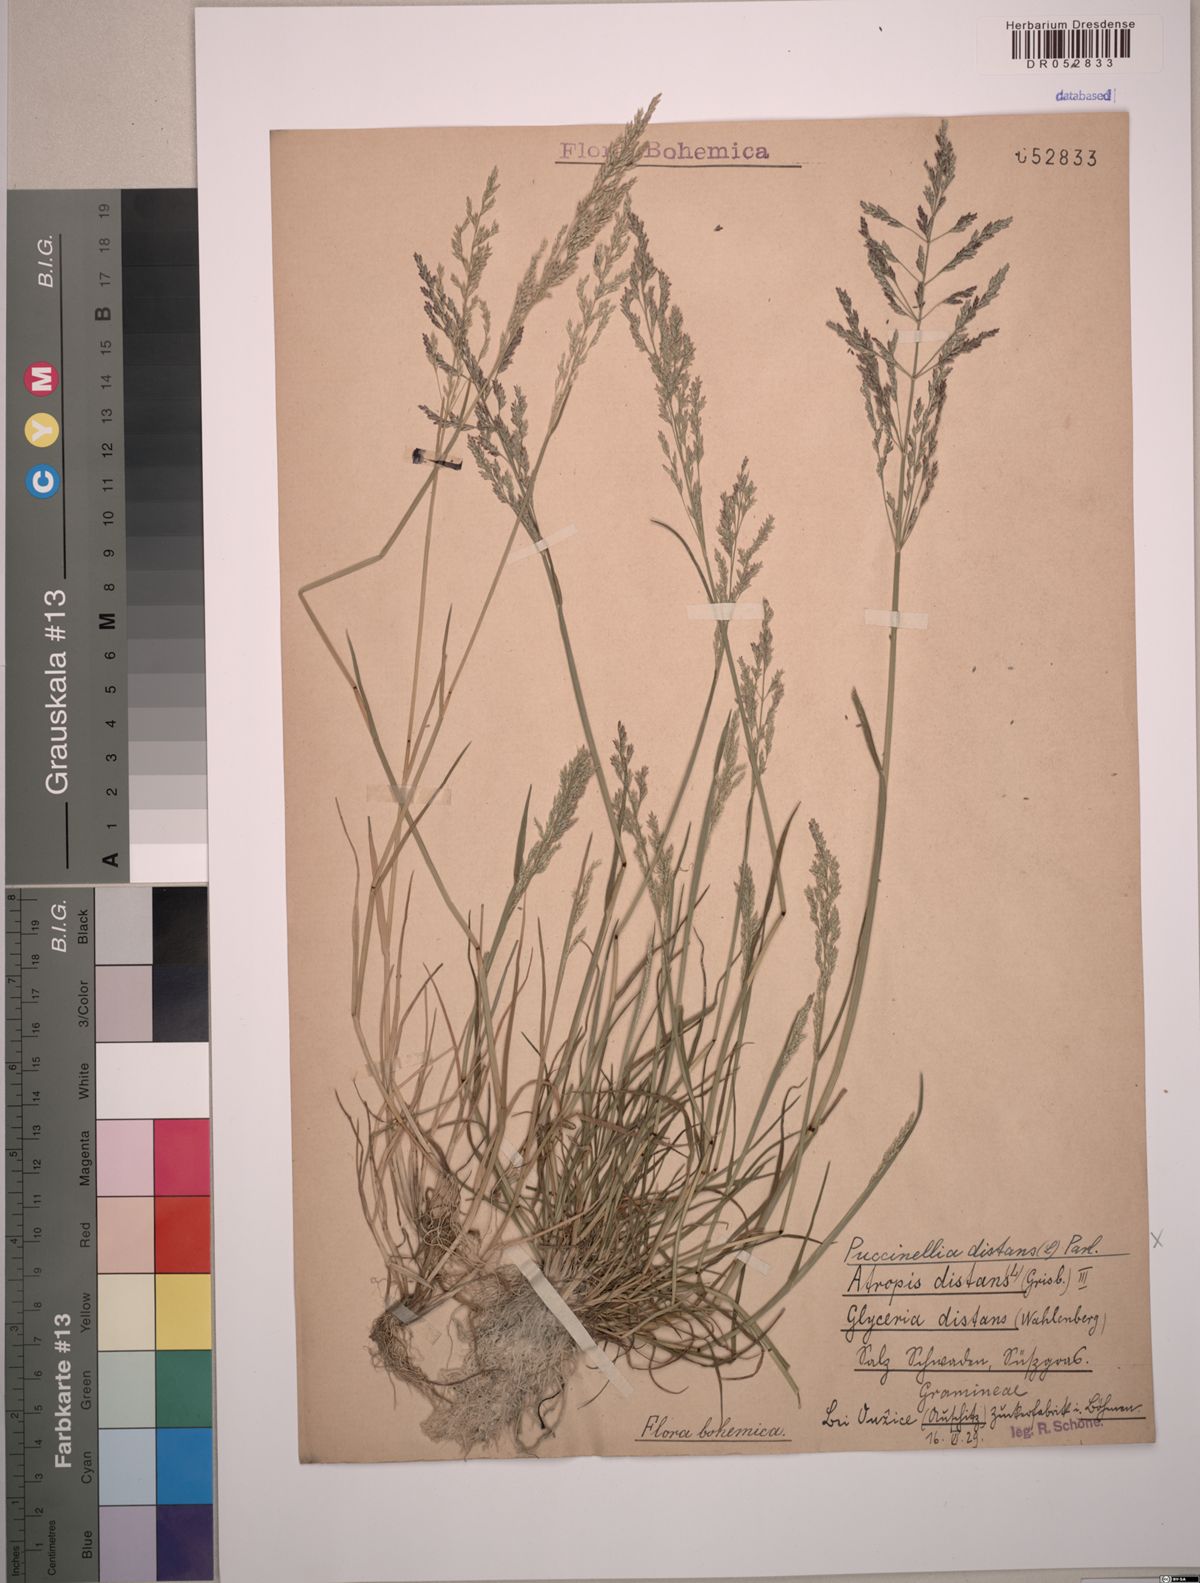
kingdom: Plantae
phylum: Tracheophyta
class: Liliopsida
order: Poales
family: Poaceae
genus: Puccinellia
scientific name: Puccinellia distans
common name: Weeping alkaligrass
